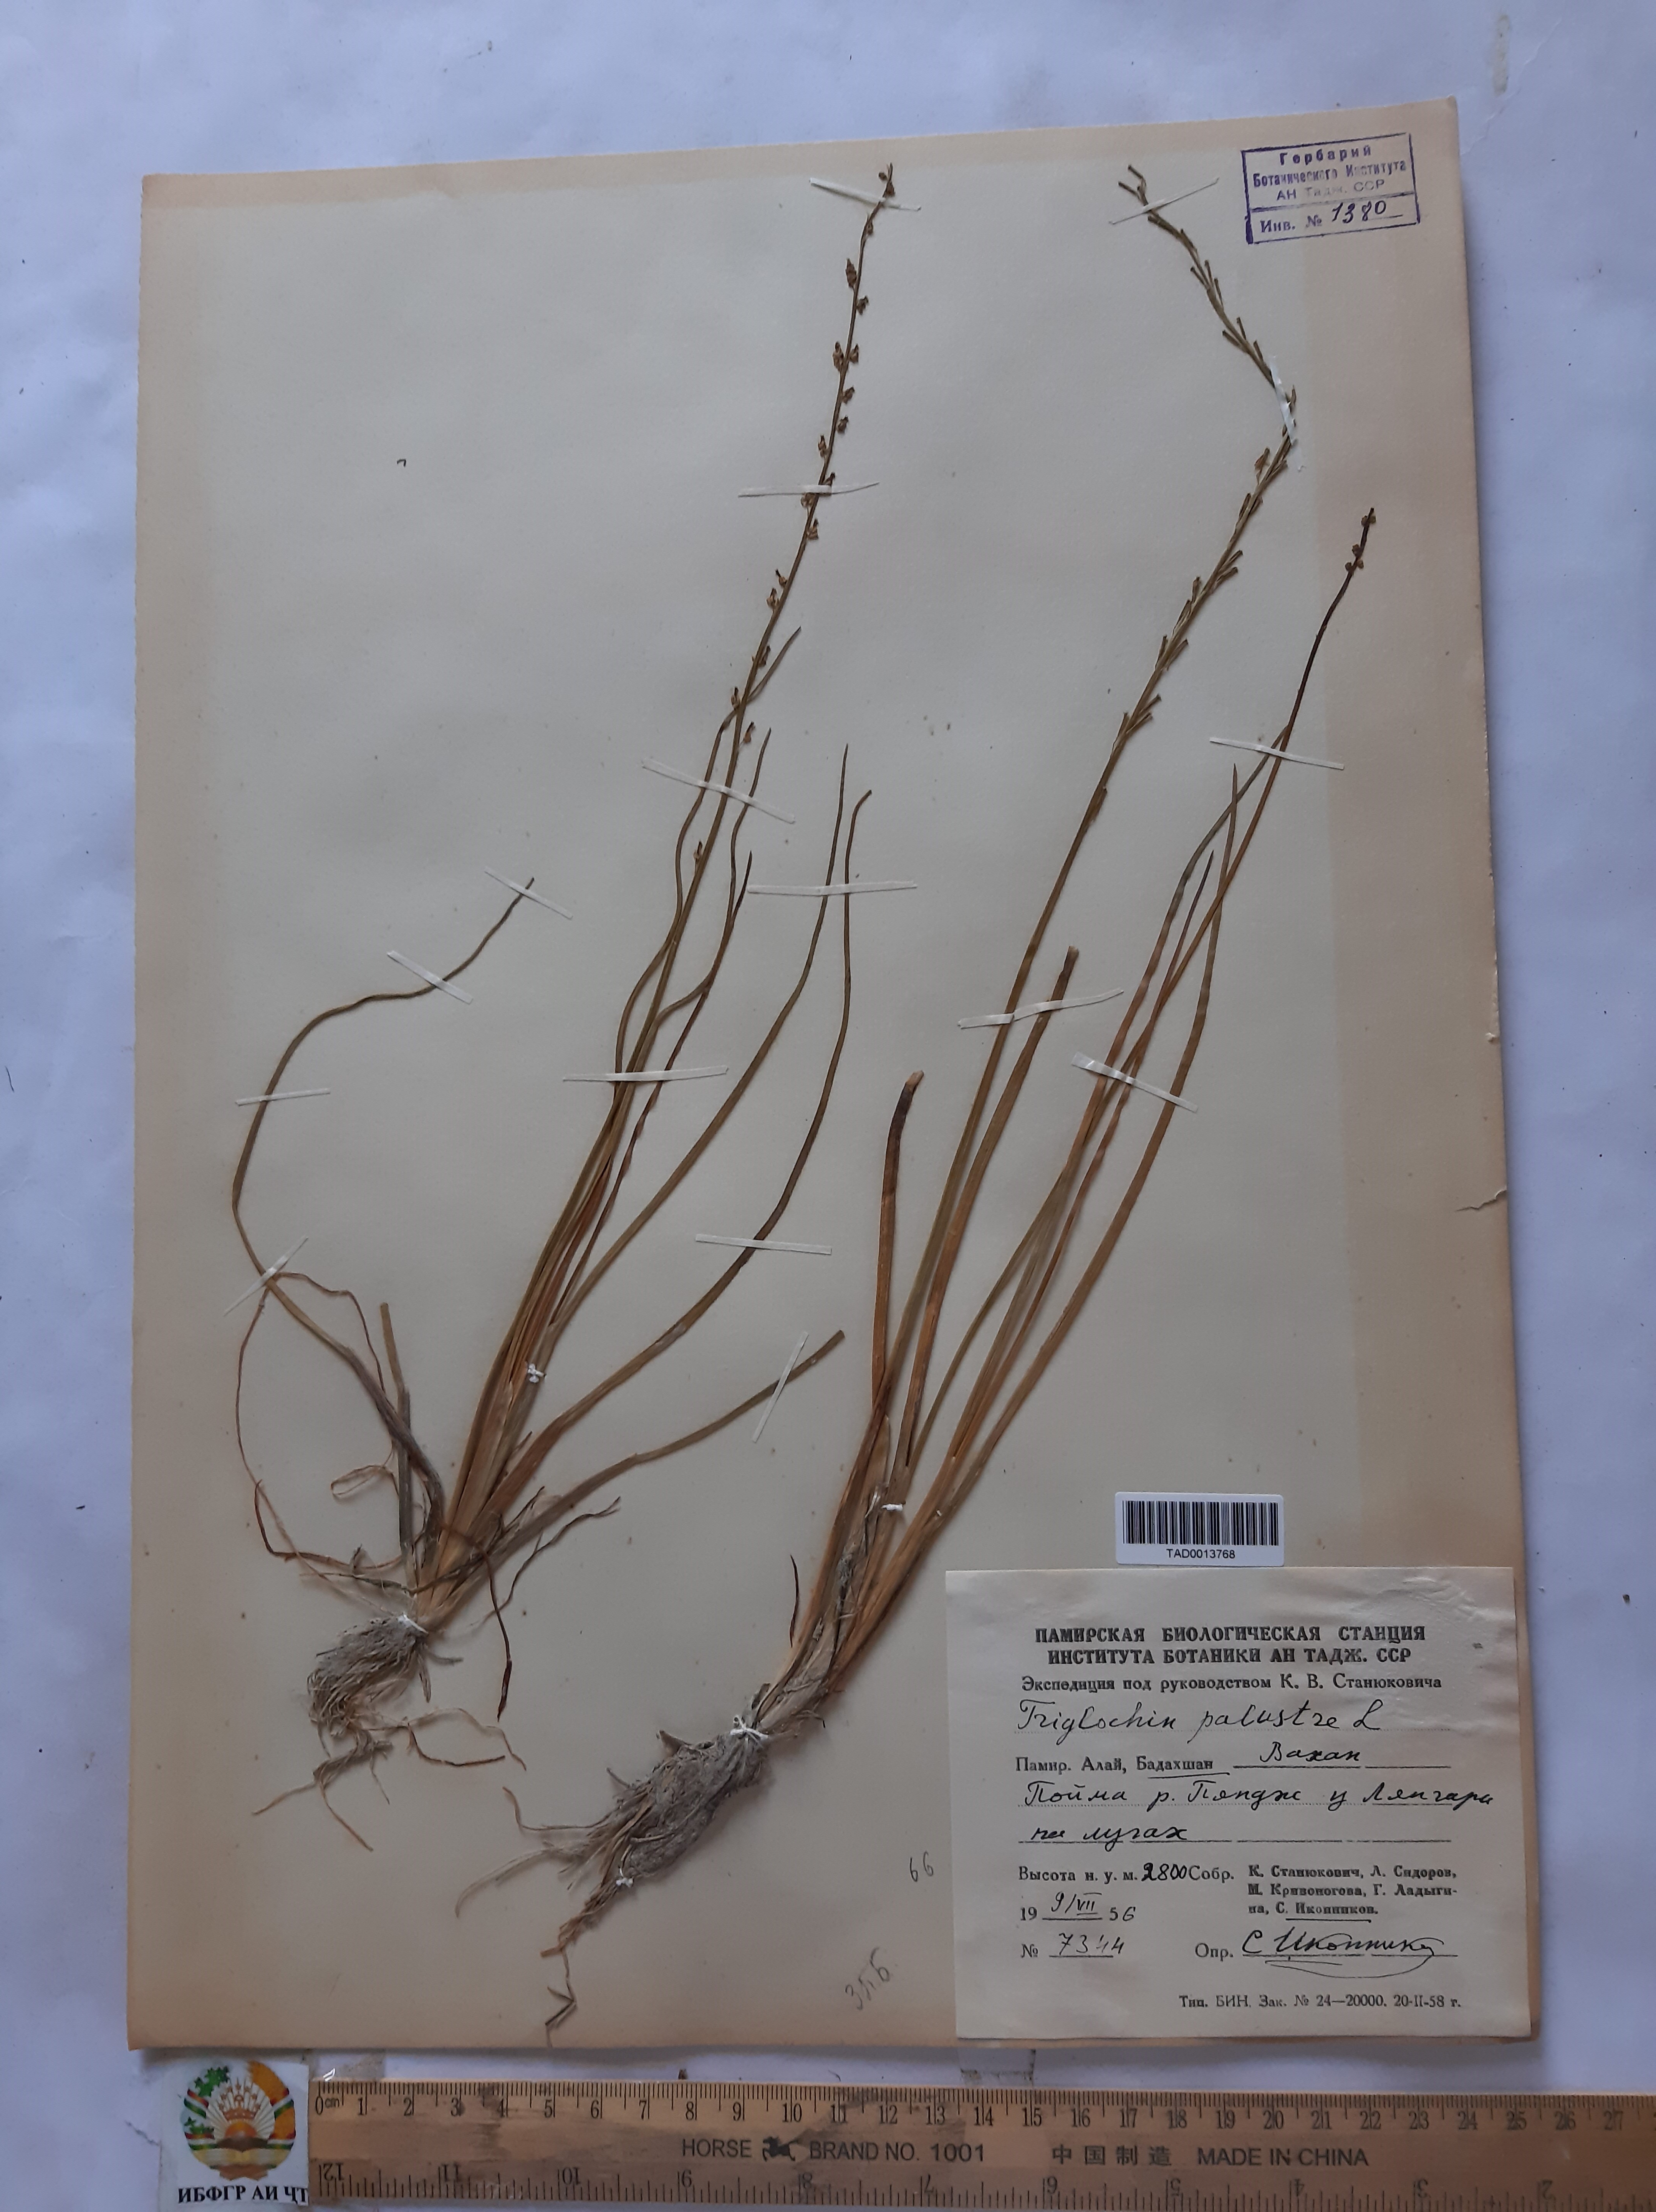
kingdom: Plantae
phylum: Tracheophyta
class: Liliopsida
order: Alismatales
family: Juncaginaceae
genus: Triglochin
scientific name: Triglochin palustris
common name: Marsh arrowgrass
